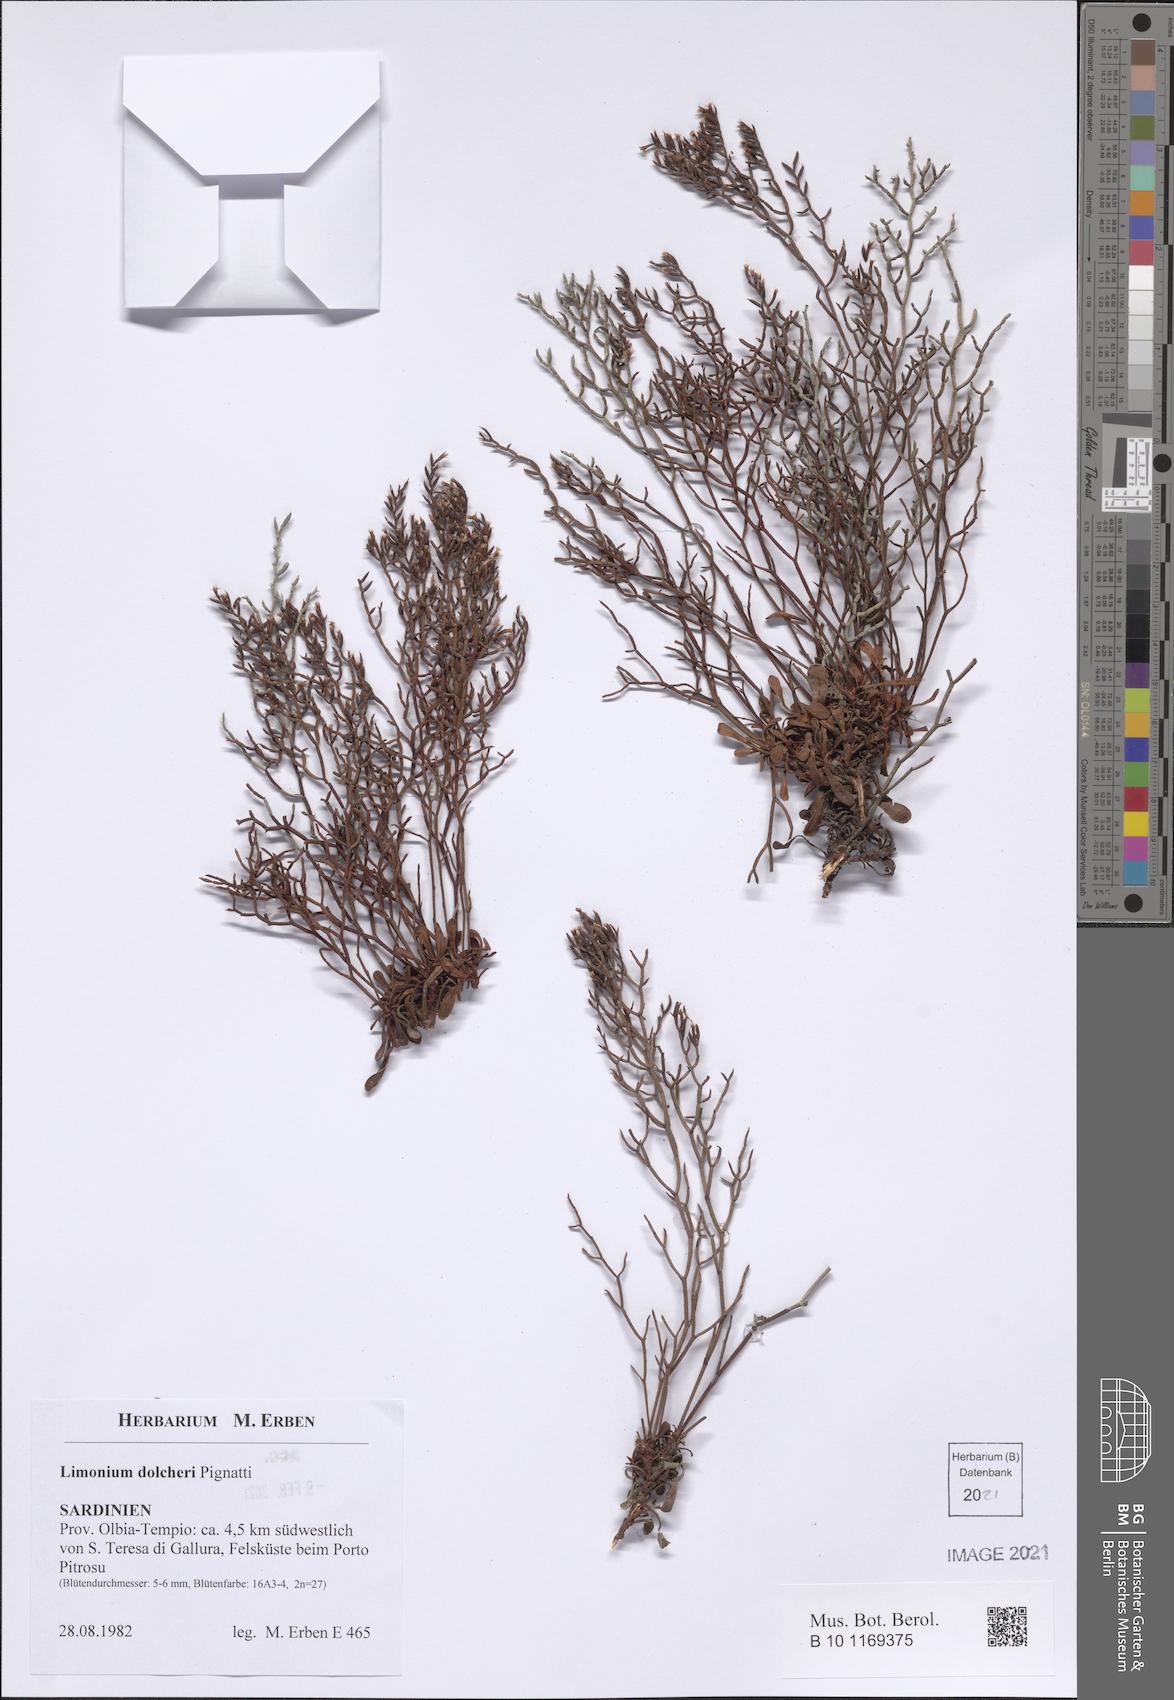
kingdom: Plantae
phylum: Tracheophyta
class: Magnoliopsida
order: Caryophyllales
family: Plumbaginaceae
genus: Limonium
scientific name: Limonium dolcheri
